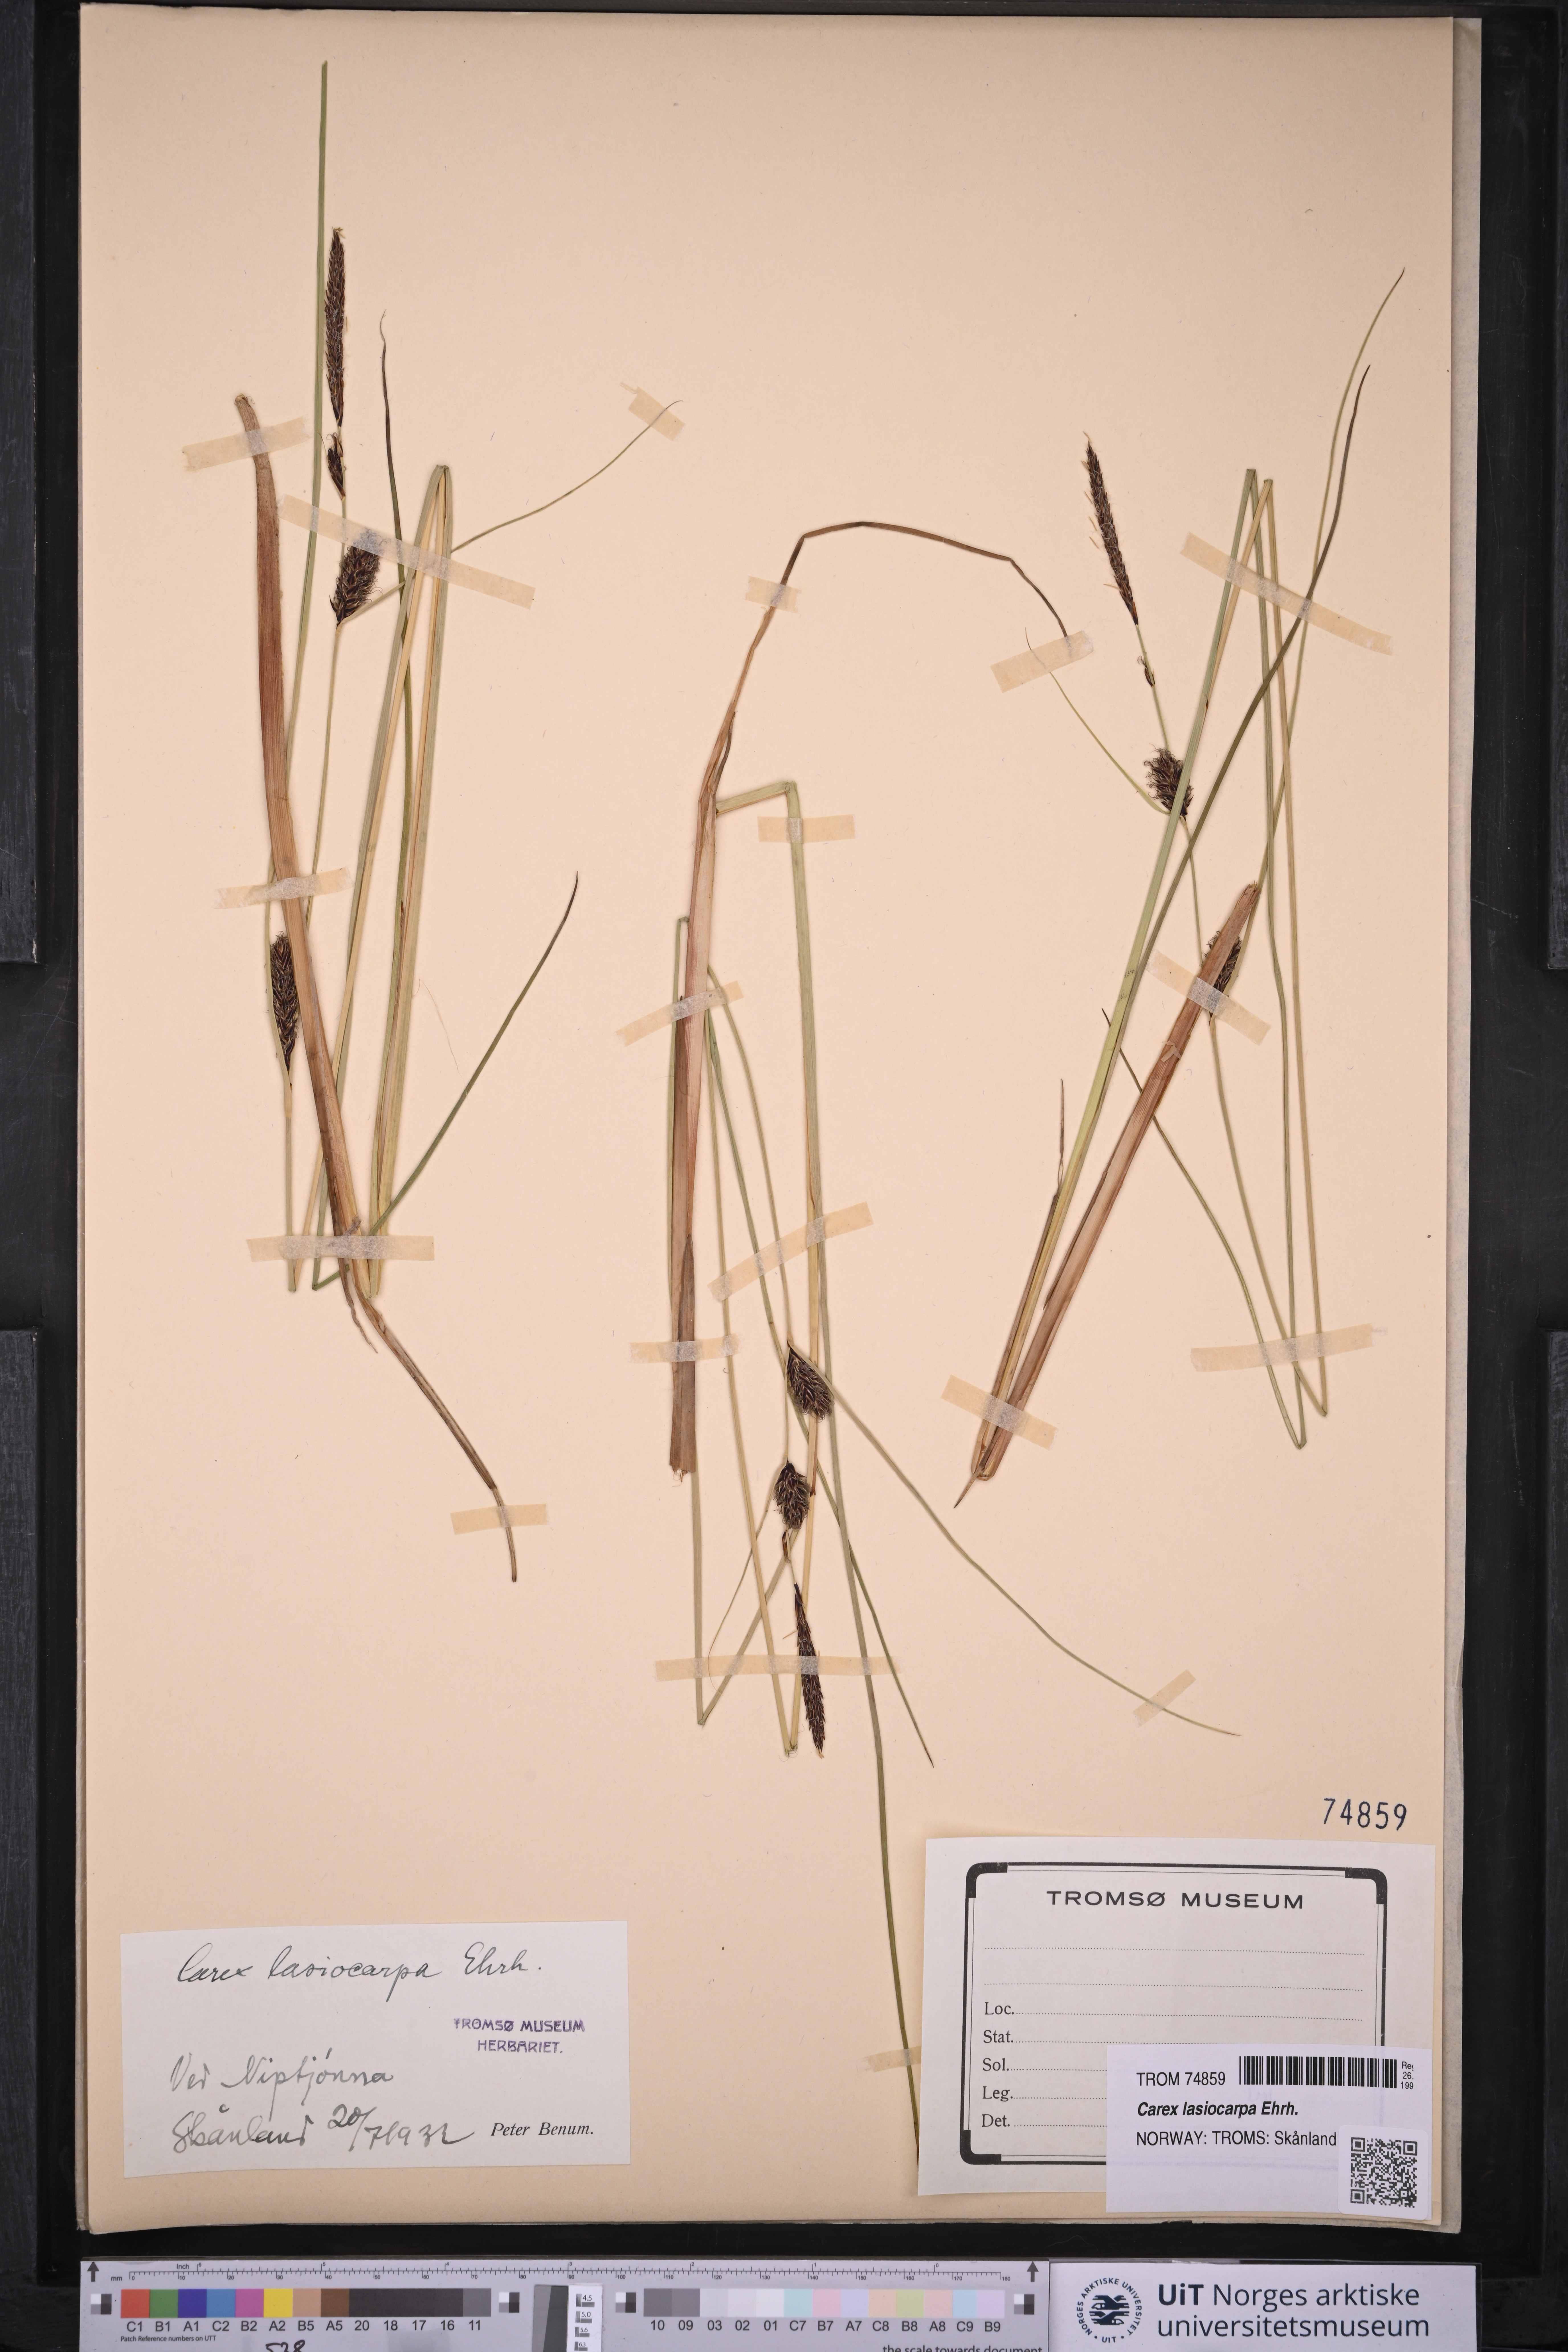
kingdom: Plantae
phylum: Tracheophyta
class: Liliopsida
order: Poales
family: Cyperaceae
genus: Carex
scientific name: Carex lasiocarpa
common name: Slender sedge
